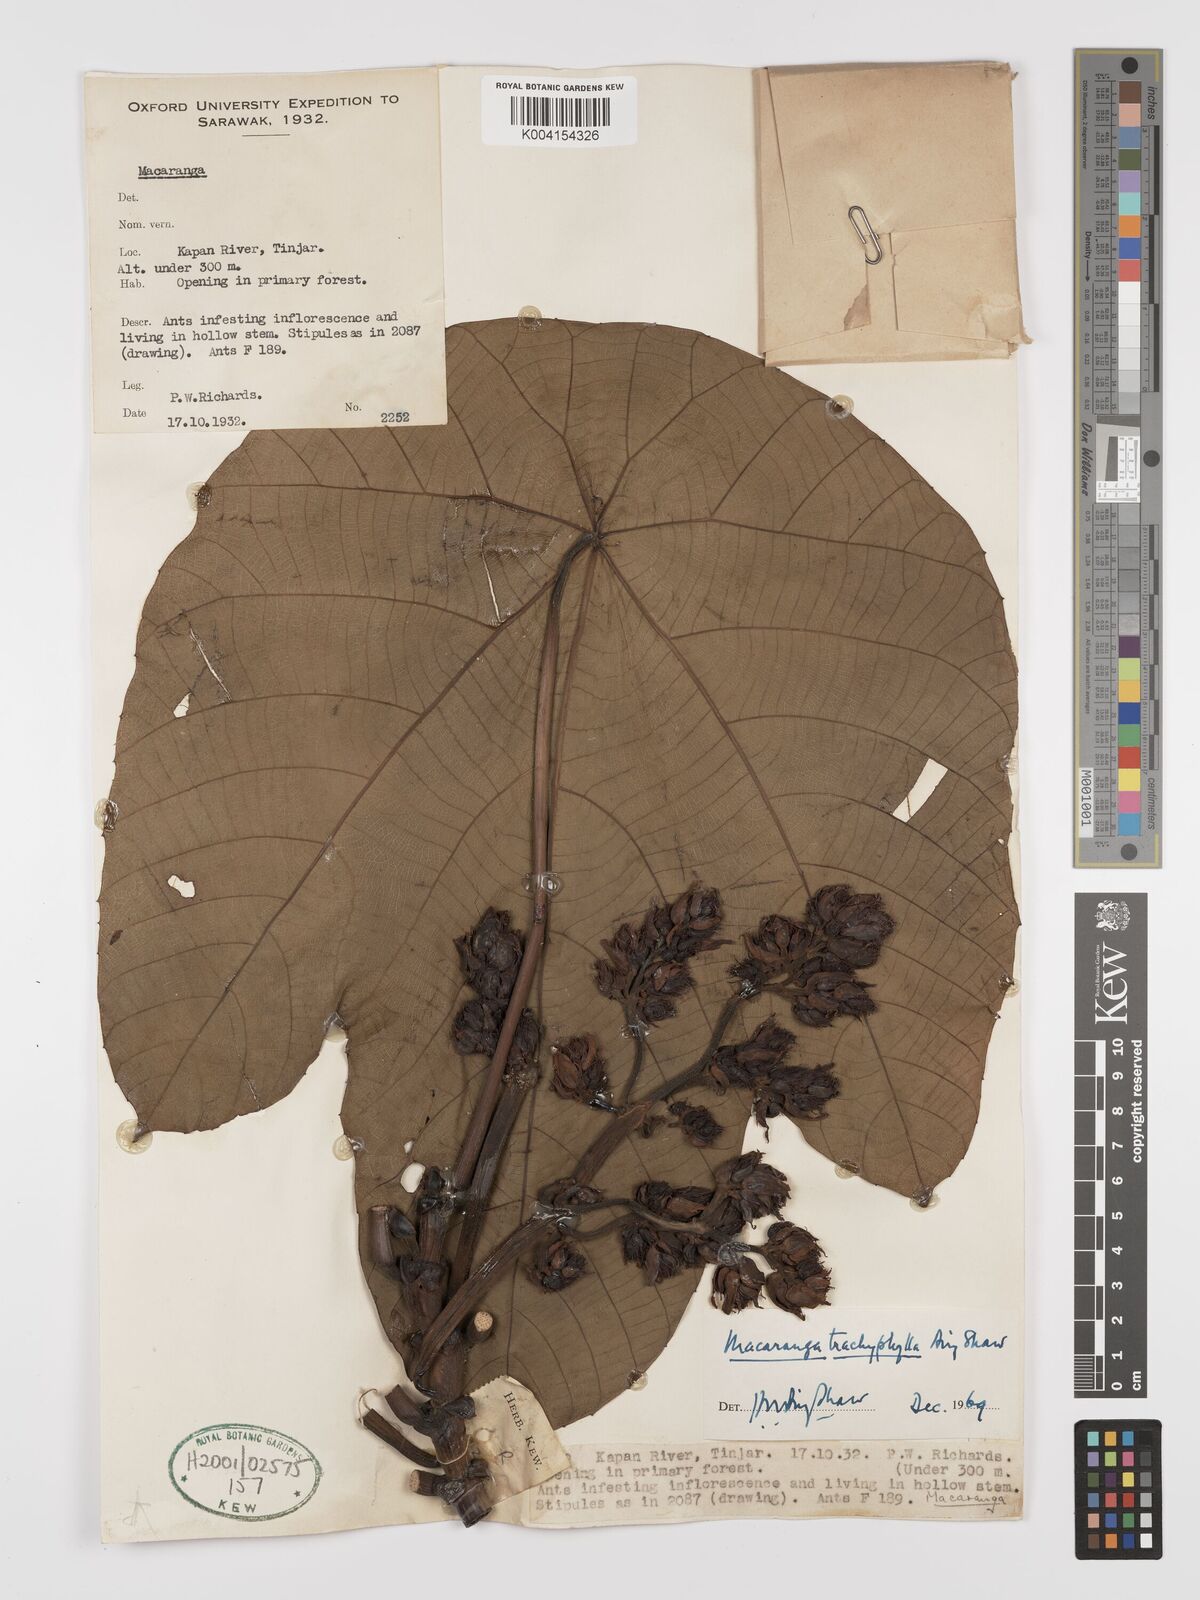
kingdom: Plantae
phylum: Tracheophyta
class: Magnoliopsida
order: Malpighiales
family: Euphorbiaceae
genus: Macaranga
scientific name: Macaranga trachyphylla
